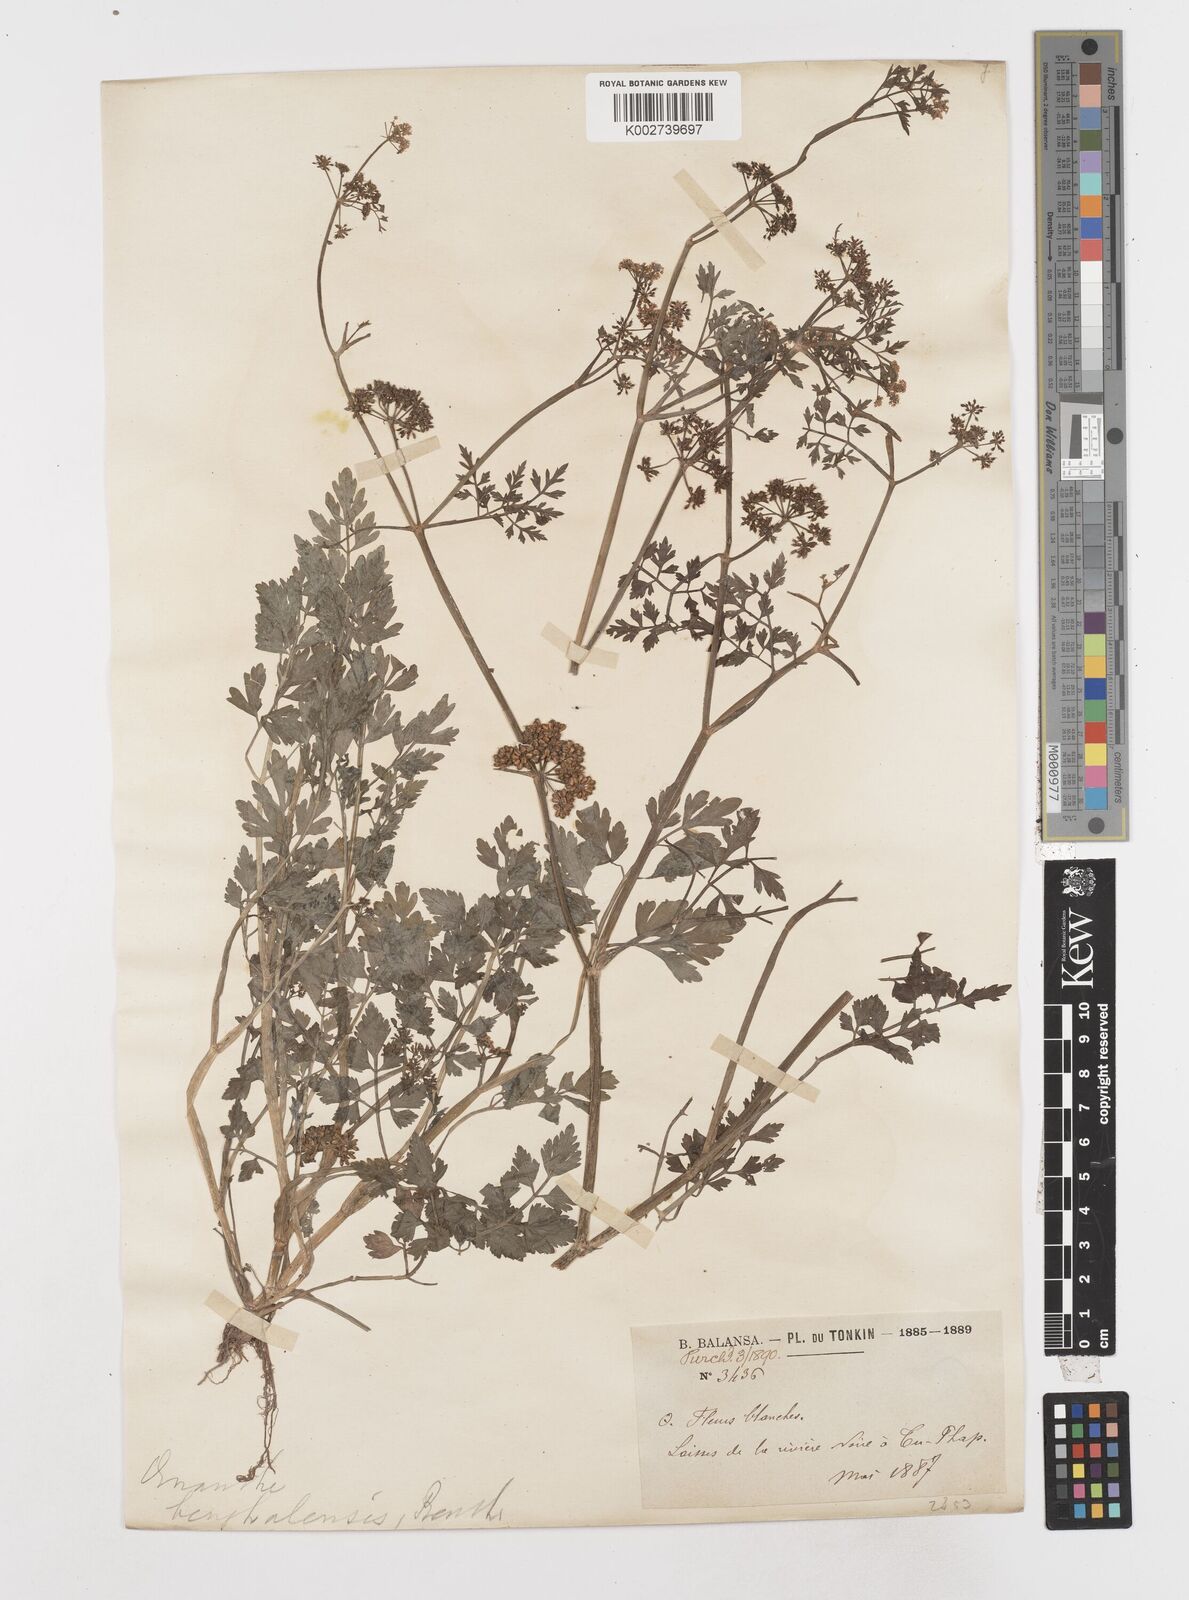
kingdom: Plantae
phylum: Tracheophyta
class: Magnoliopsida
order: Apiales
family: Apiaceae
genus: Oenanthe
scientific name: Oenanthe javanica
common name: Java water-dropwort
